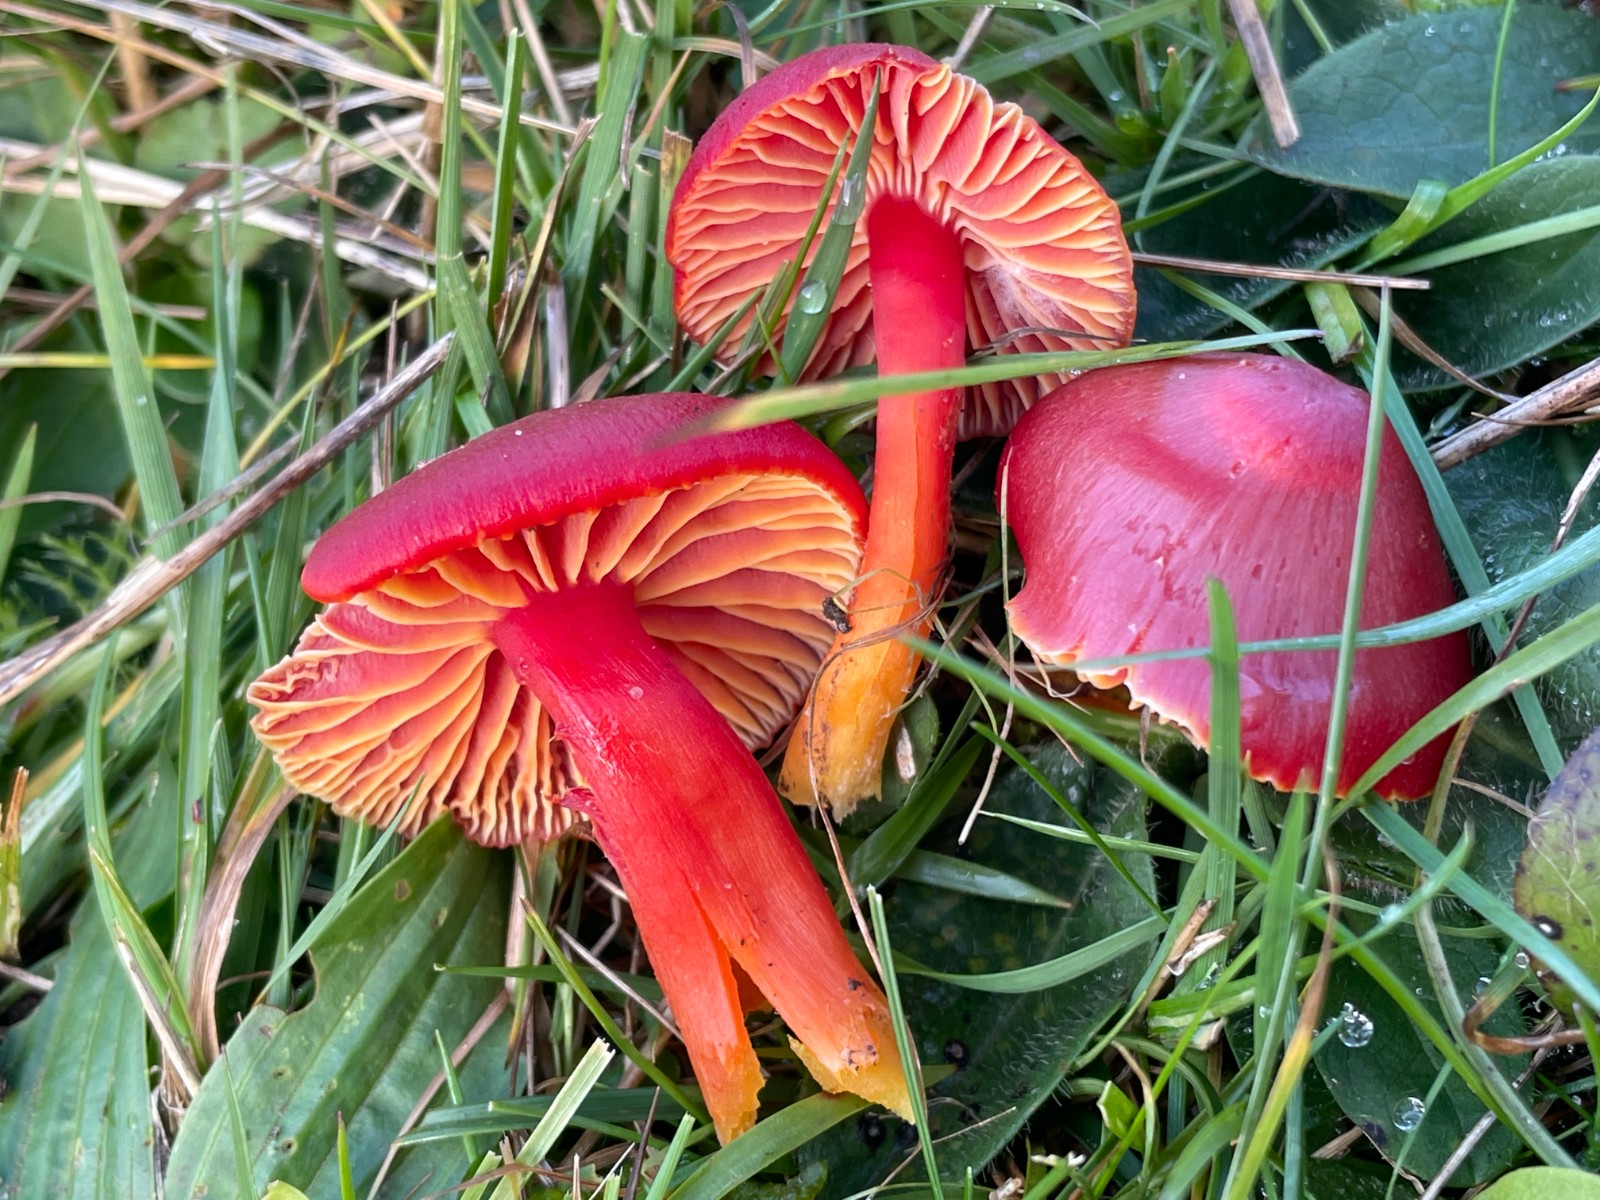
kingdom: Fungi
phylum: Basidiomycota
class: Agaricomycetes
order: Agaricales
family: Hygrophoraceae
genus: Hygrocybe
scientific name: Hygrocybe coccinea
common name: cinnober-vokshat
